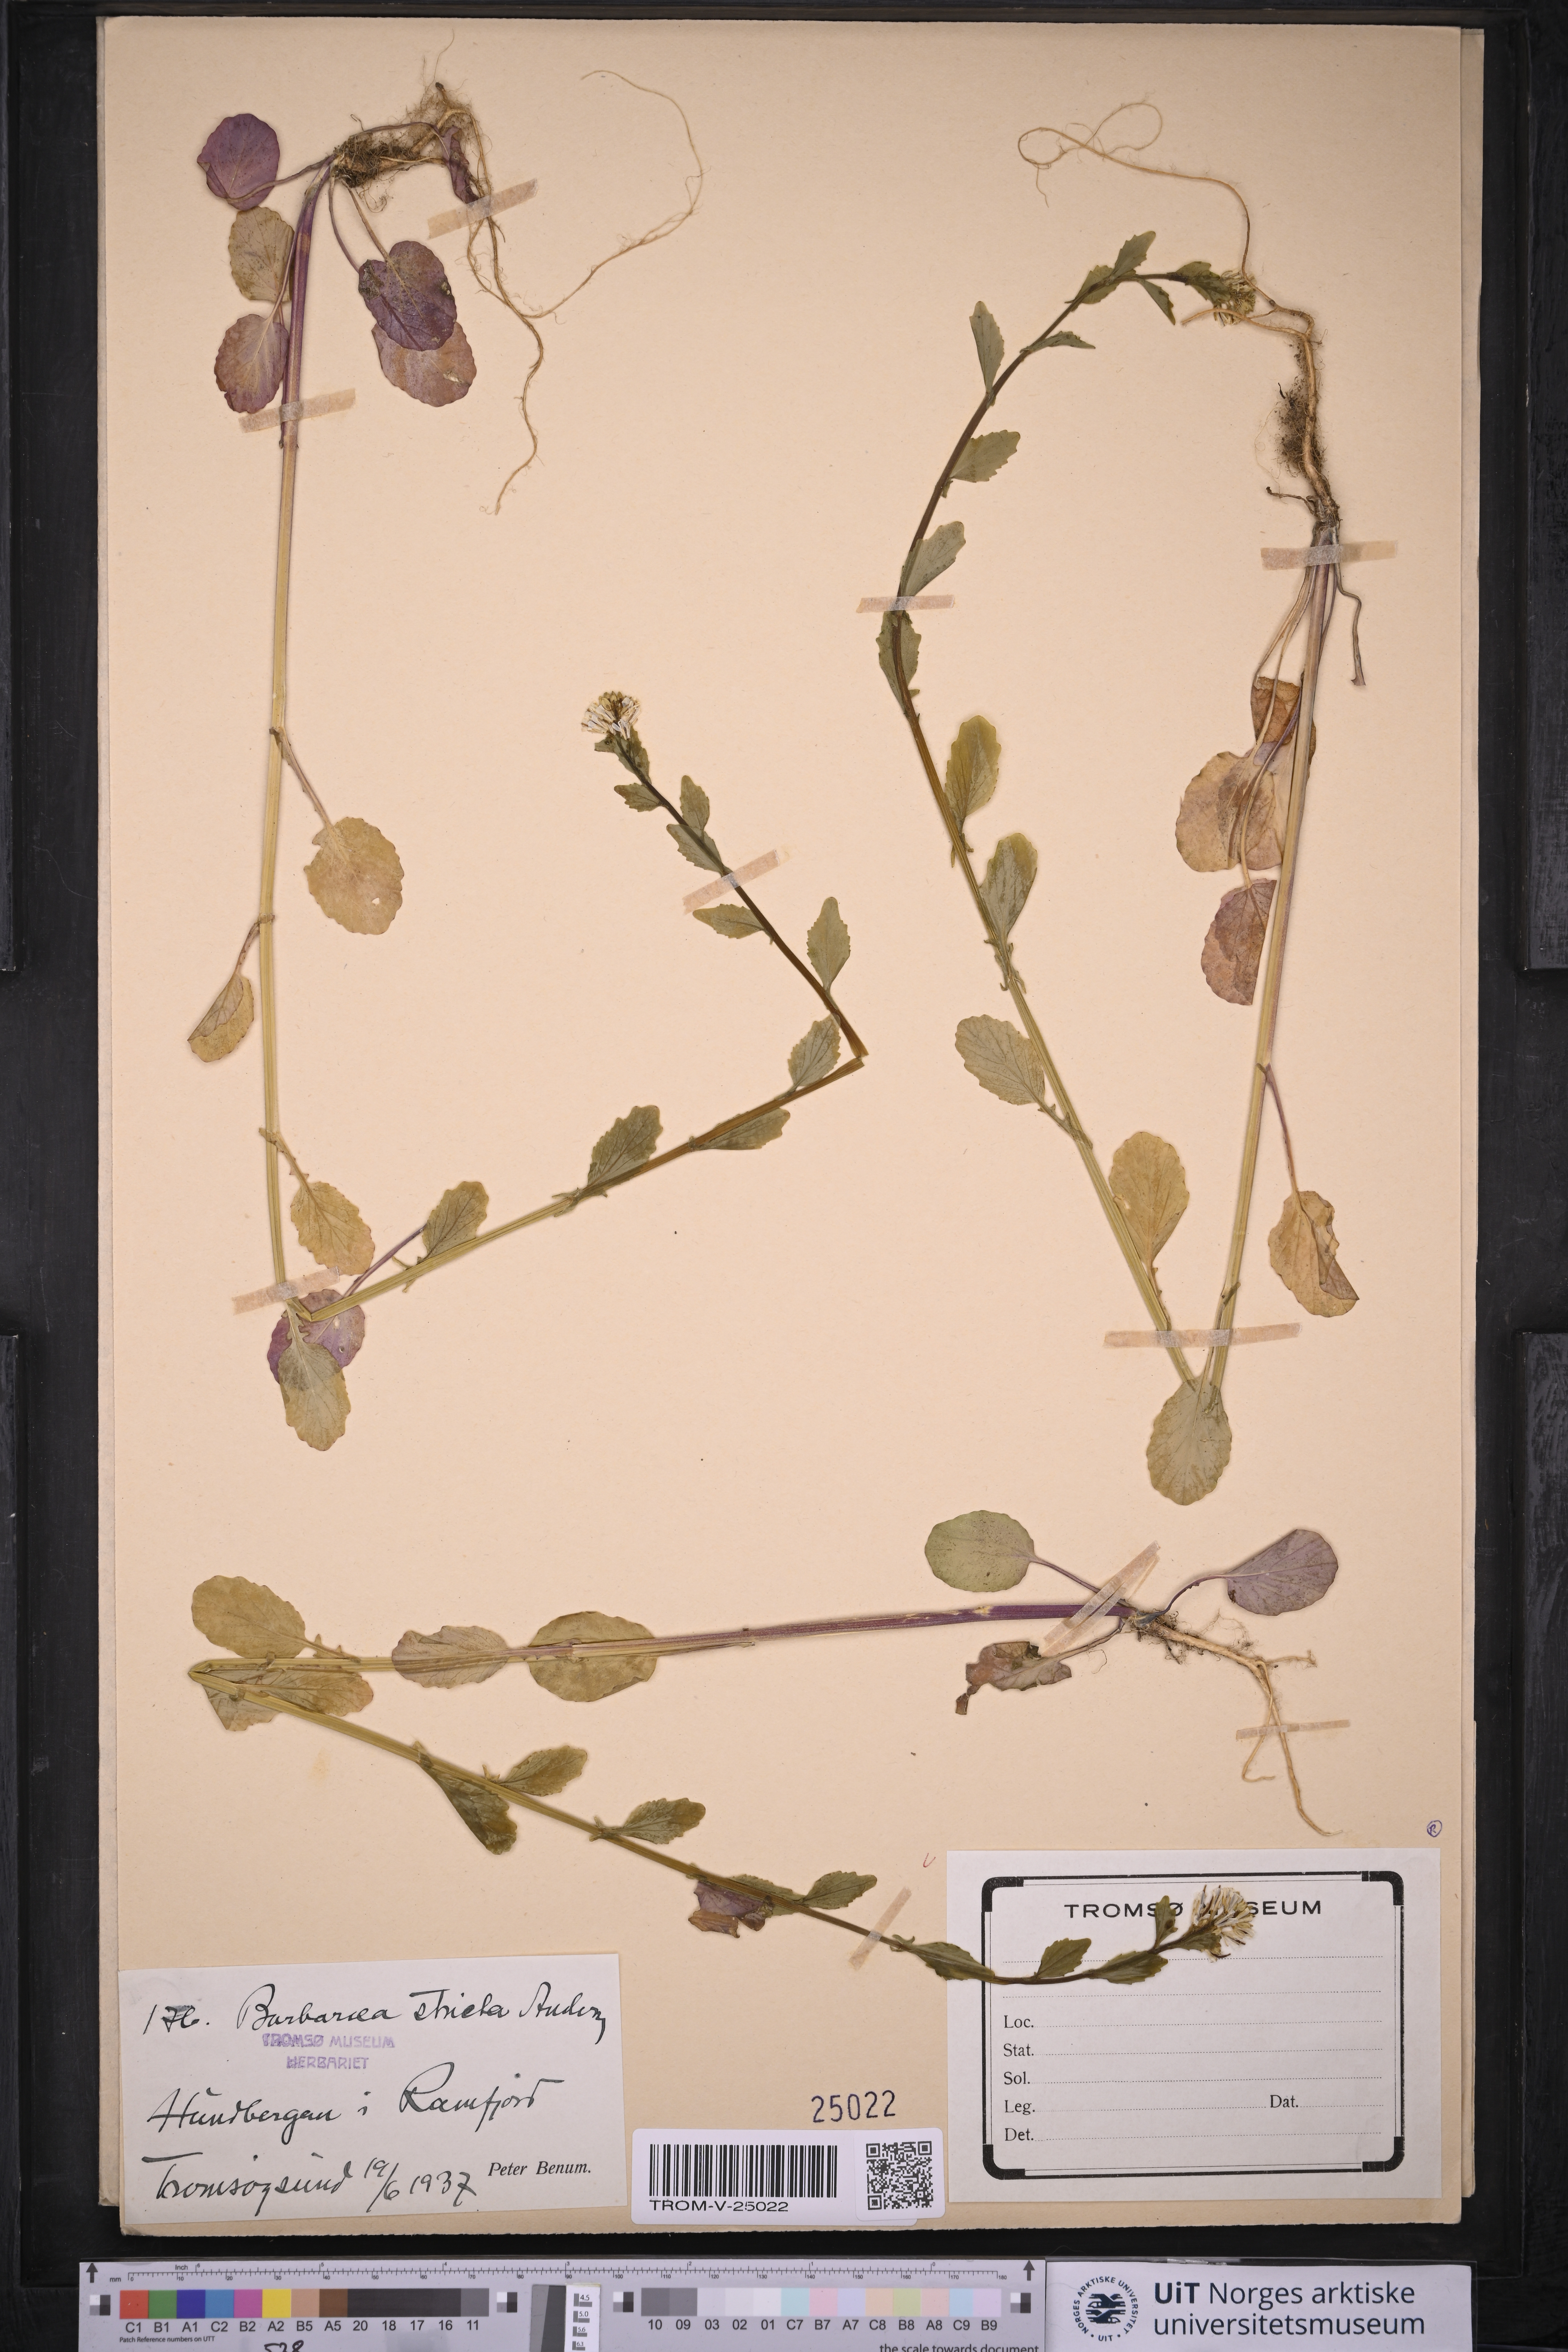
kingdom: Plantae
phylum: Tracheophyta
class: Magnoliopsida
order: Brassicales
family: Brassicaceae
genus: Barbarea
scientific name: Barbarea stricta
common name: Small-flowered winter-cress
